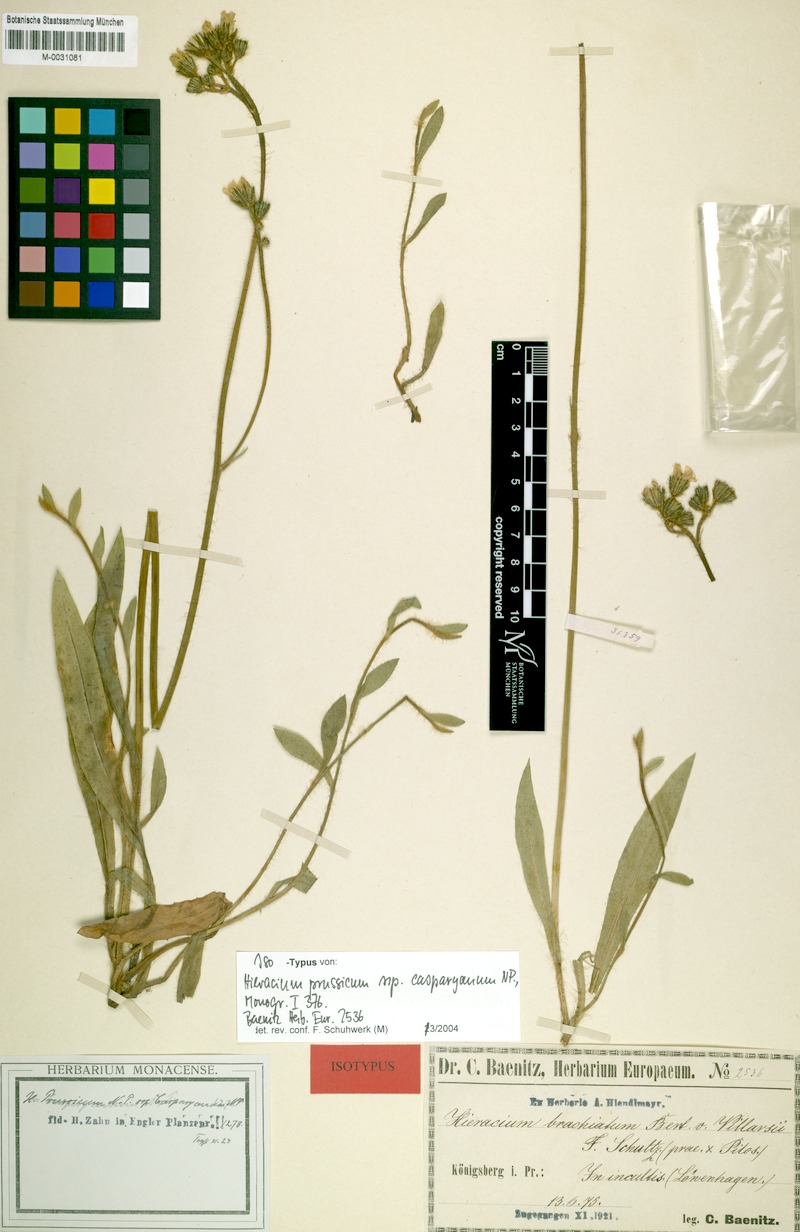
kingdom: Plantae
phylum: Tracheophyta
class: Magnoliopsida
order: Asterales
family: Asteraceae
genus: Pilosella
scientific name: Pilosella prussica
